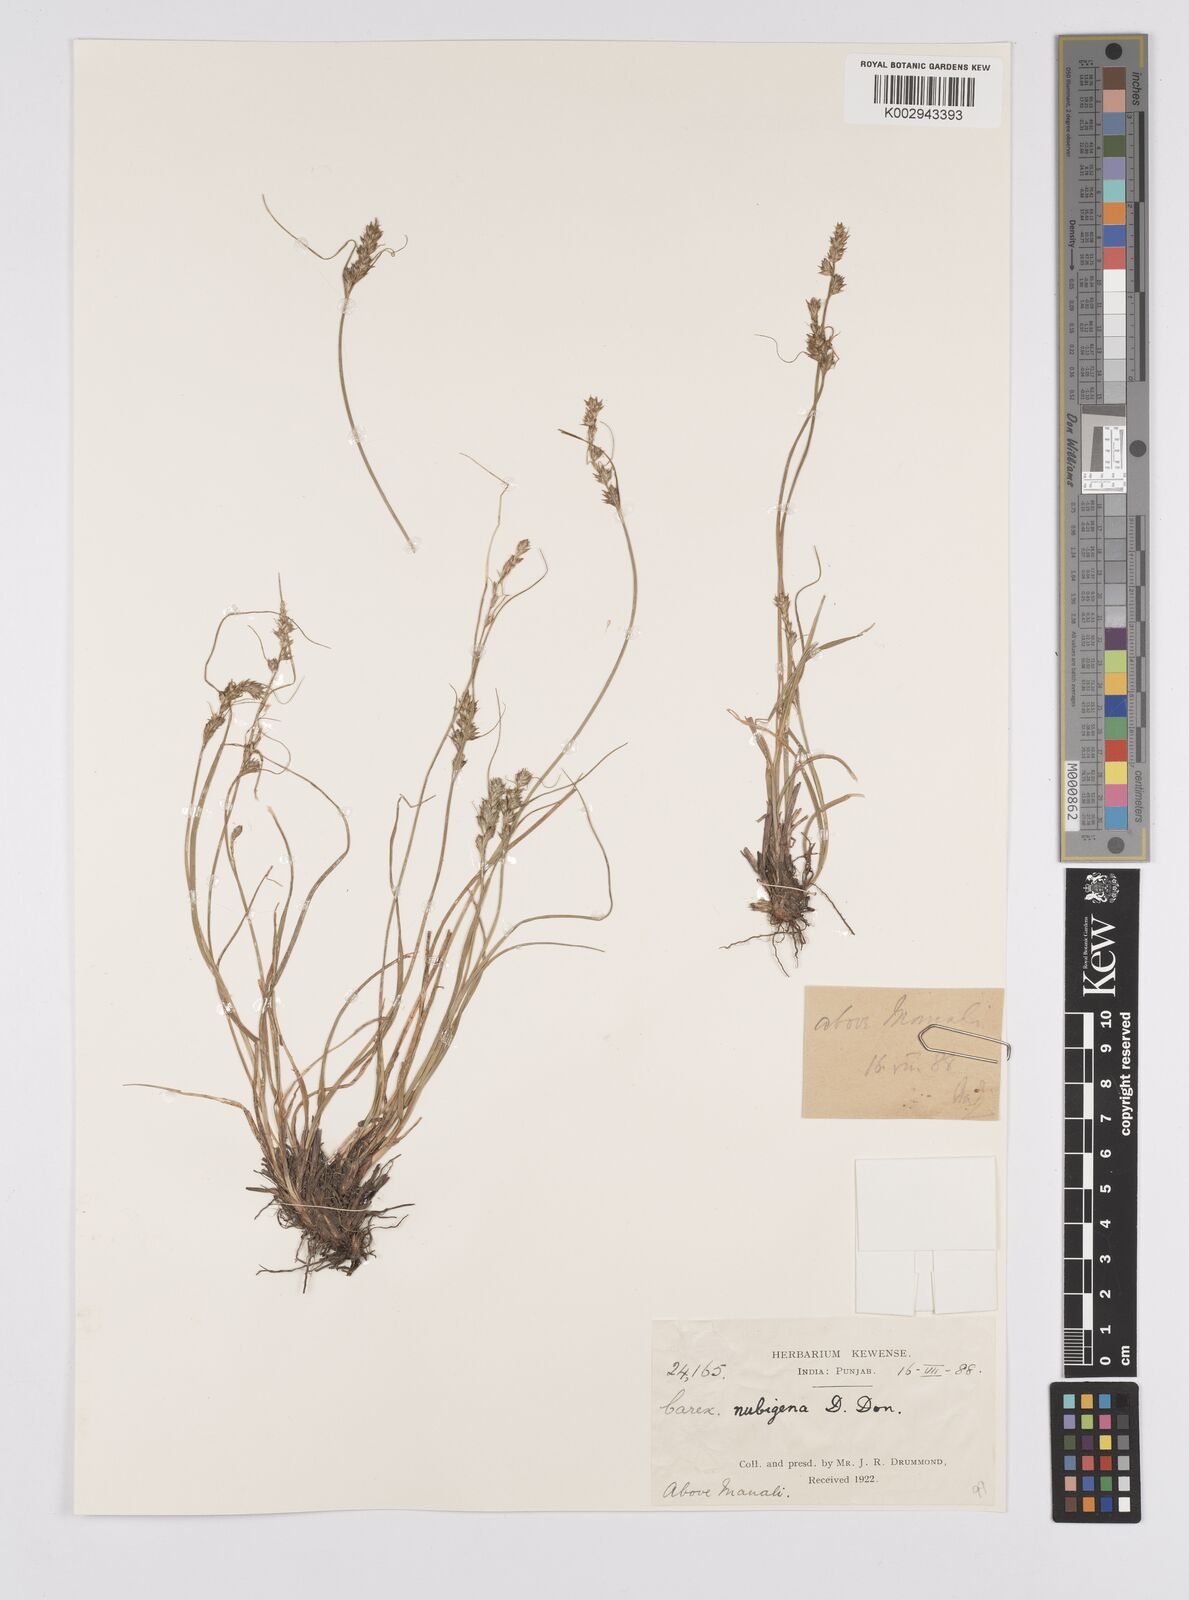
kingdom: Plantae
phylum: Tracheophyta
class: Liliopsida
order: Poales
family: Cyperaceae
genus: Carex
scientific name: Carex nubigena
